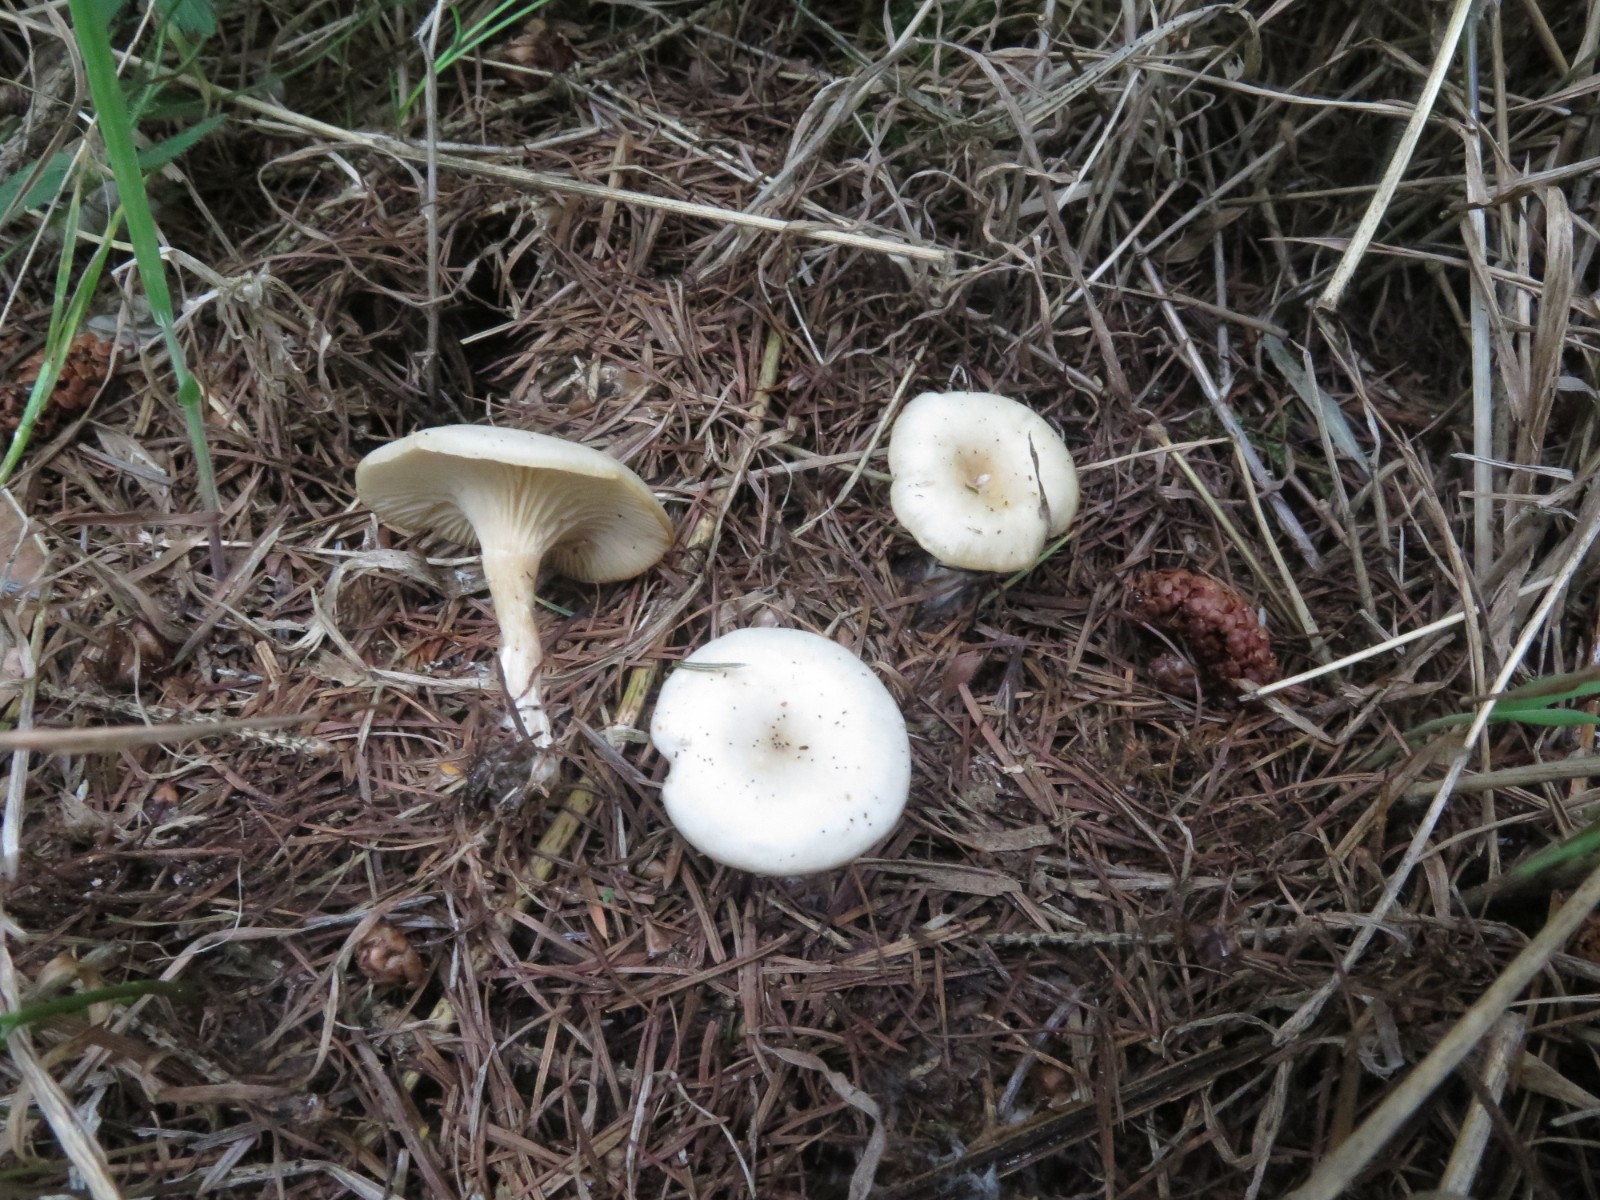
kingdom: Fungi
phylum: Basidiomycota
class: Agaricomycetes
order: Agaricales
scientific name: Agaricales
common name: champignonordenen
